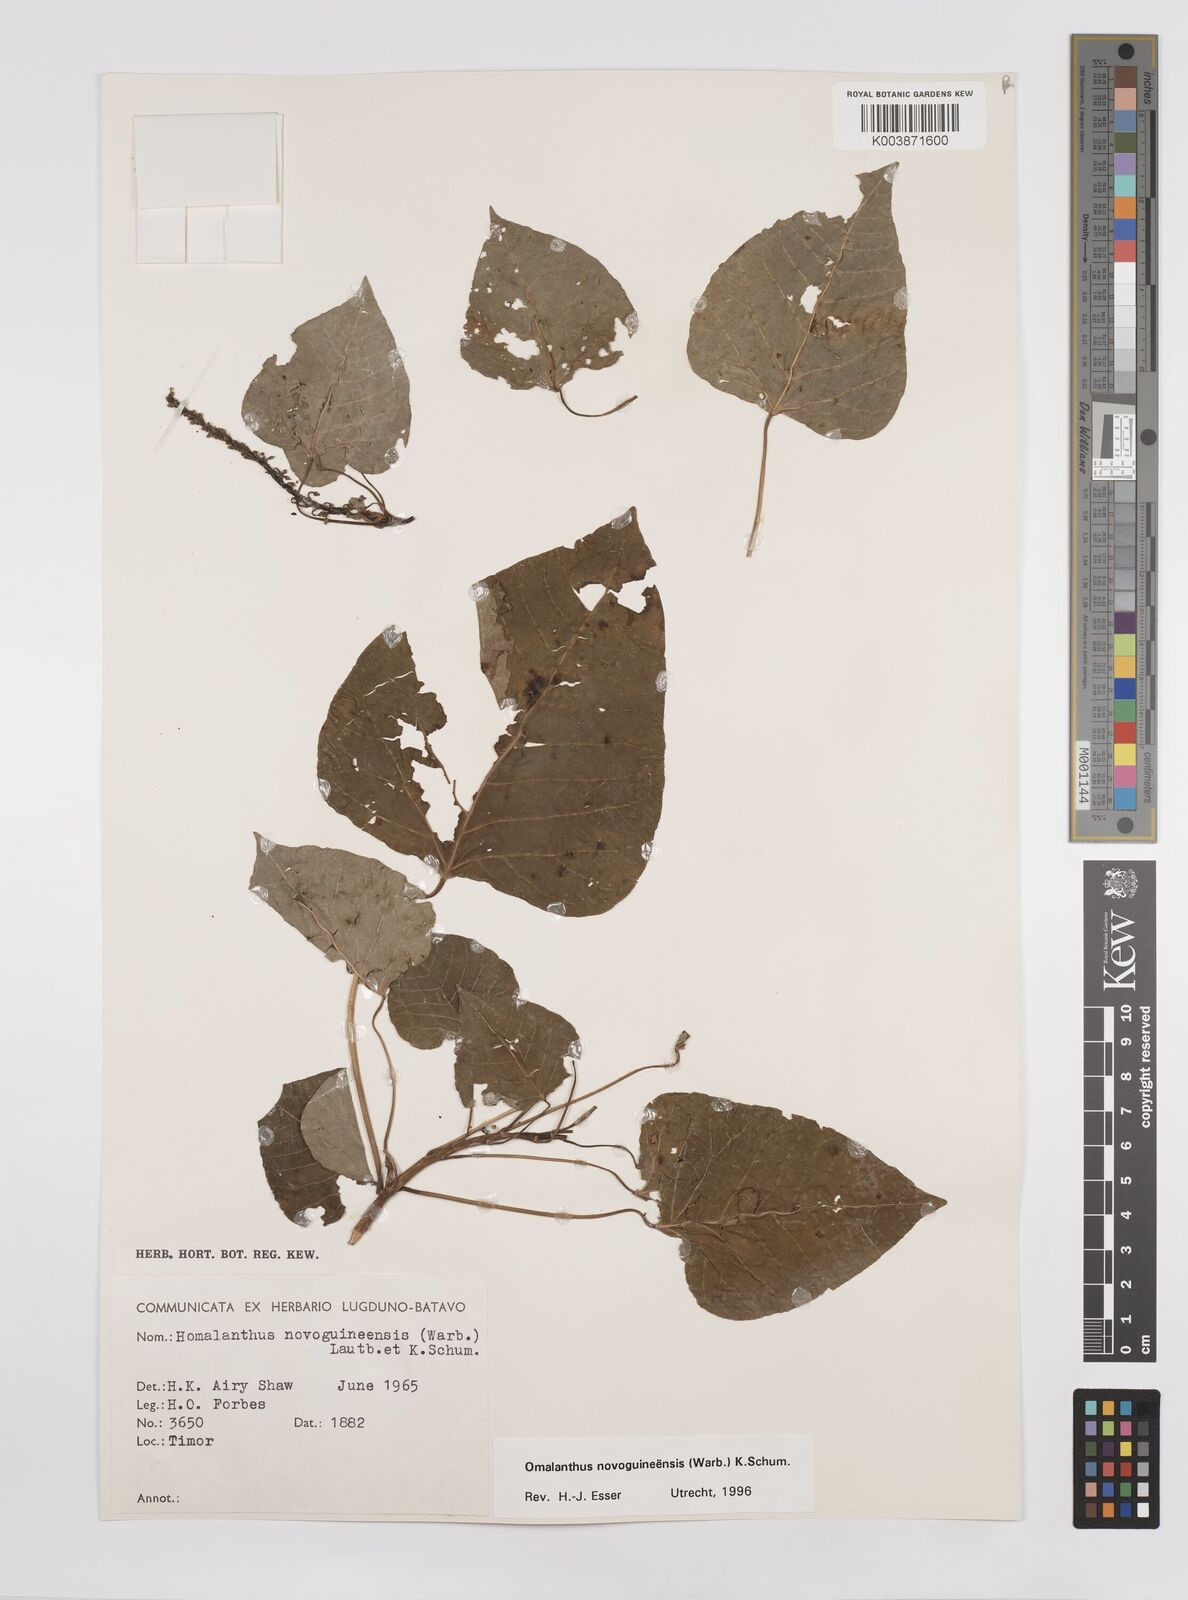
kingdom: Plantae
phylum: Tracheophyta
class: Magnoliopsida
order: Malpighiales
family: Euphorbiaceae
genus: Homalanthus
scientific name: Homalanthus novoguineensis
